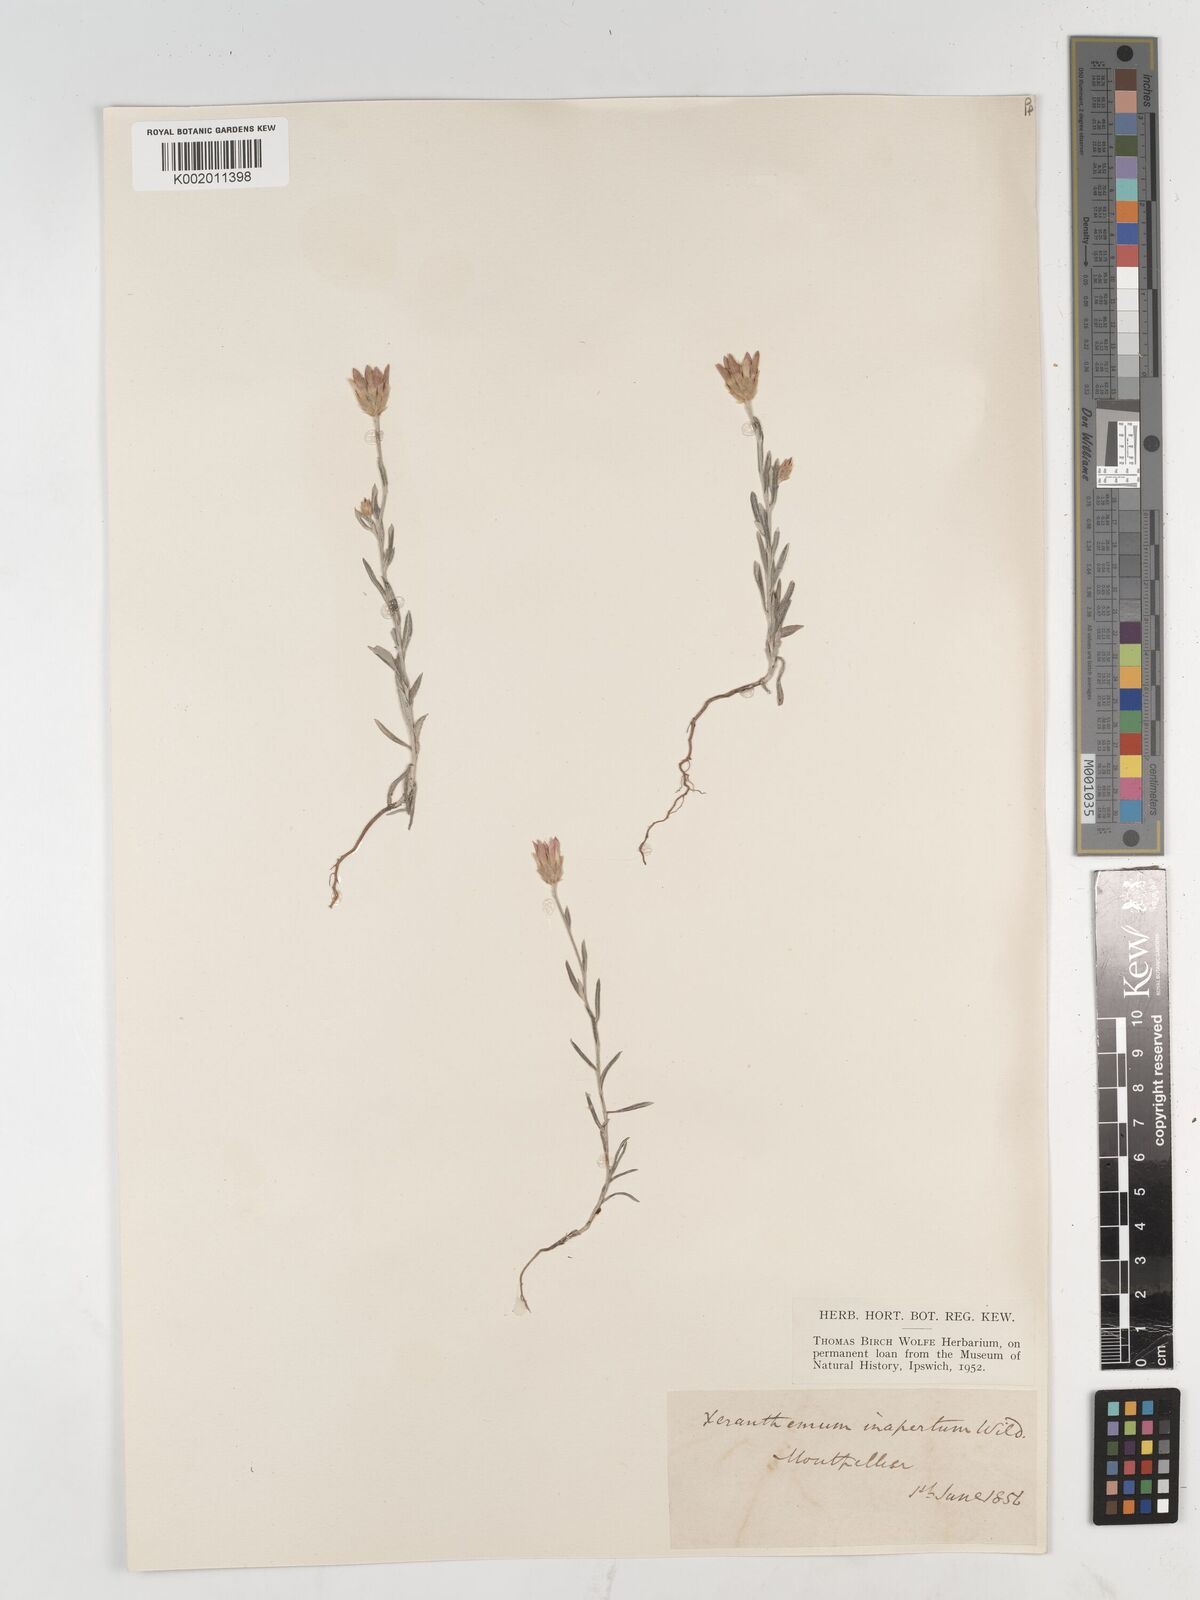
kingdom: Plantae
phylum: Tracheophyta
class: Magnoliopsida
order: Asterales
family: Asteraceae
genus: Xeranthemum
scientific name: Xeranthemum inapertum
